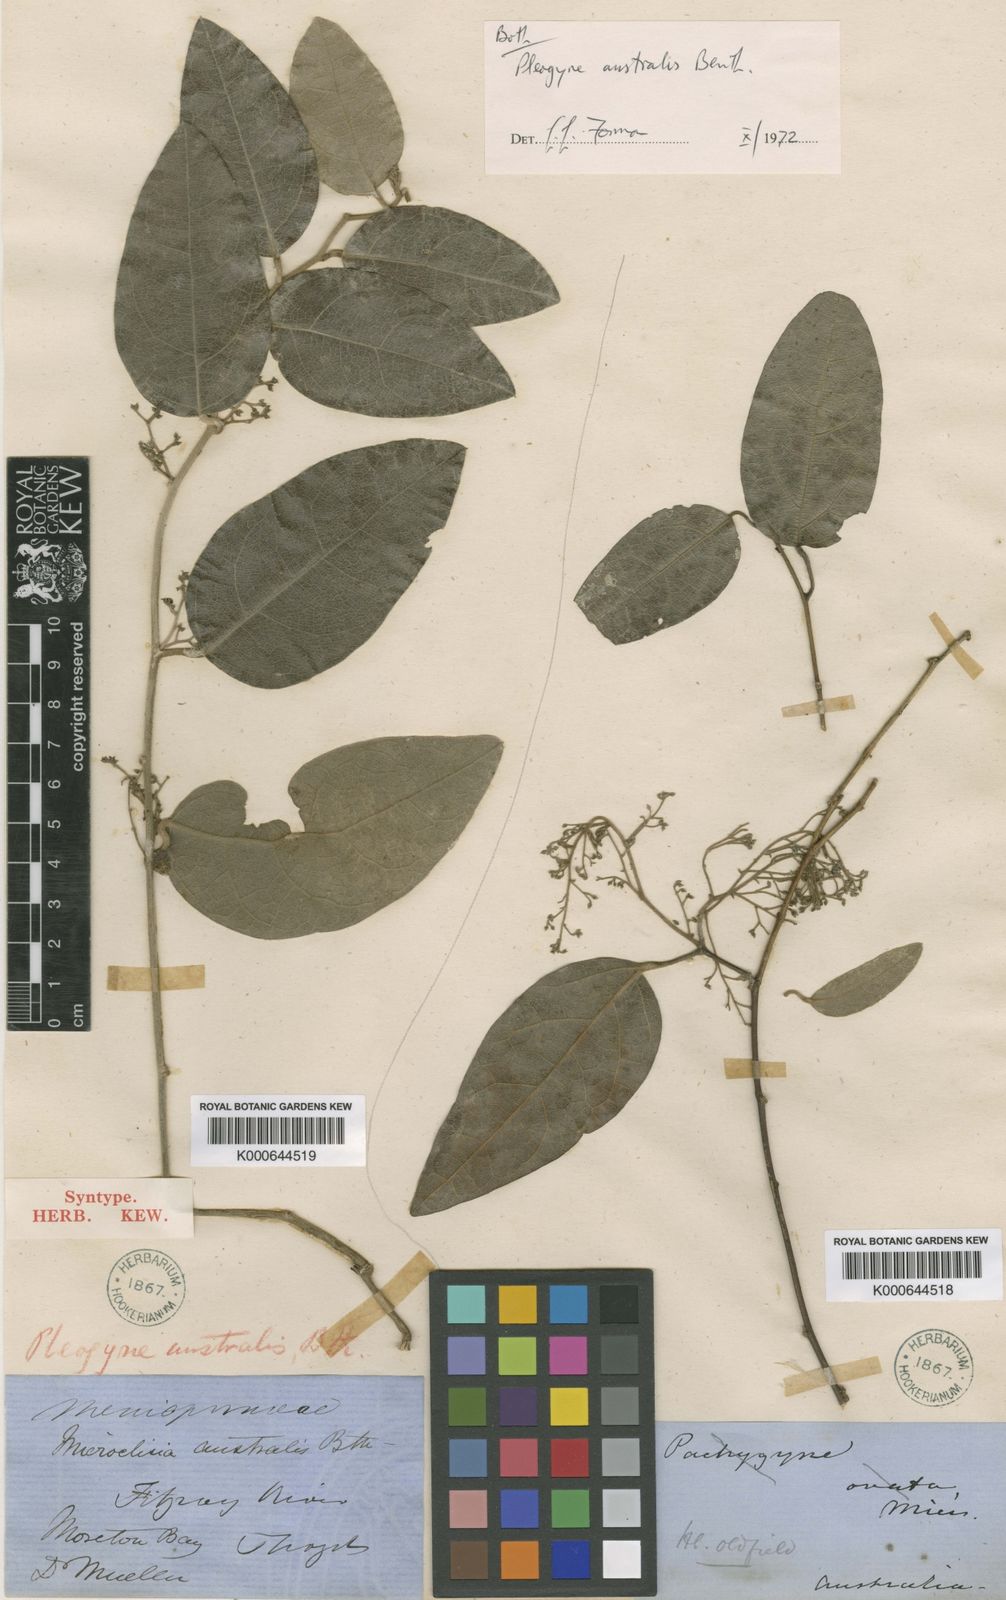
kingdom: Plantae
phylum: Tracheophyta
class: Magnoliopsida
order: Ranunculales
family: Menispermaceae
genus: Pleogyne
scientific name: Pleogyne australis
